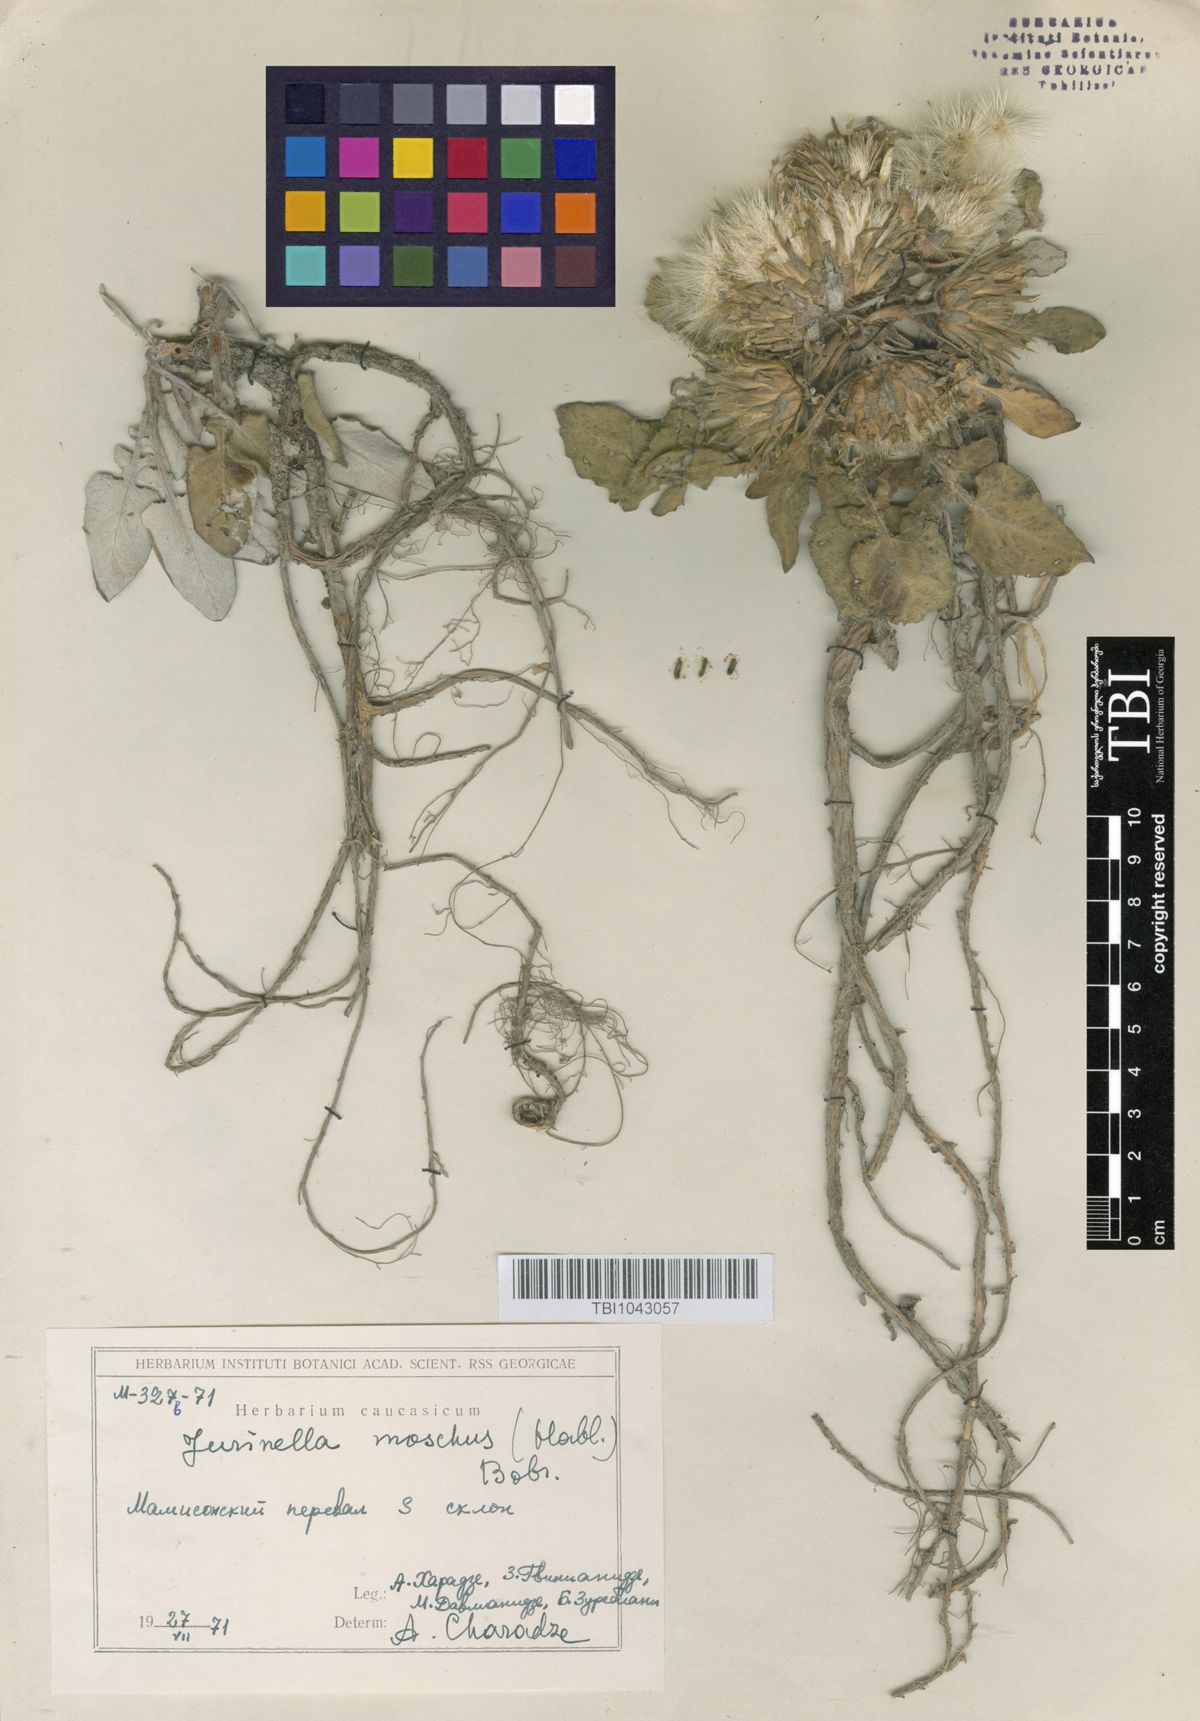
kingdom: Plantae
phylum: Tracheophyta
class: Magnoliopsida
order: Asterales
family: Asteraceae
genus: Jurinea
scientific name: Jurinea moschus
